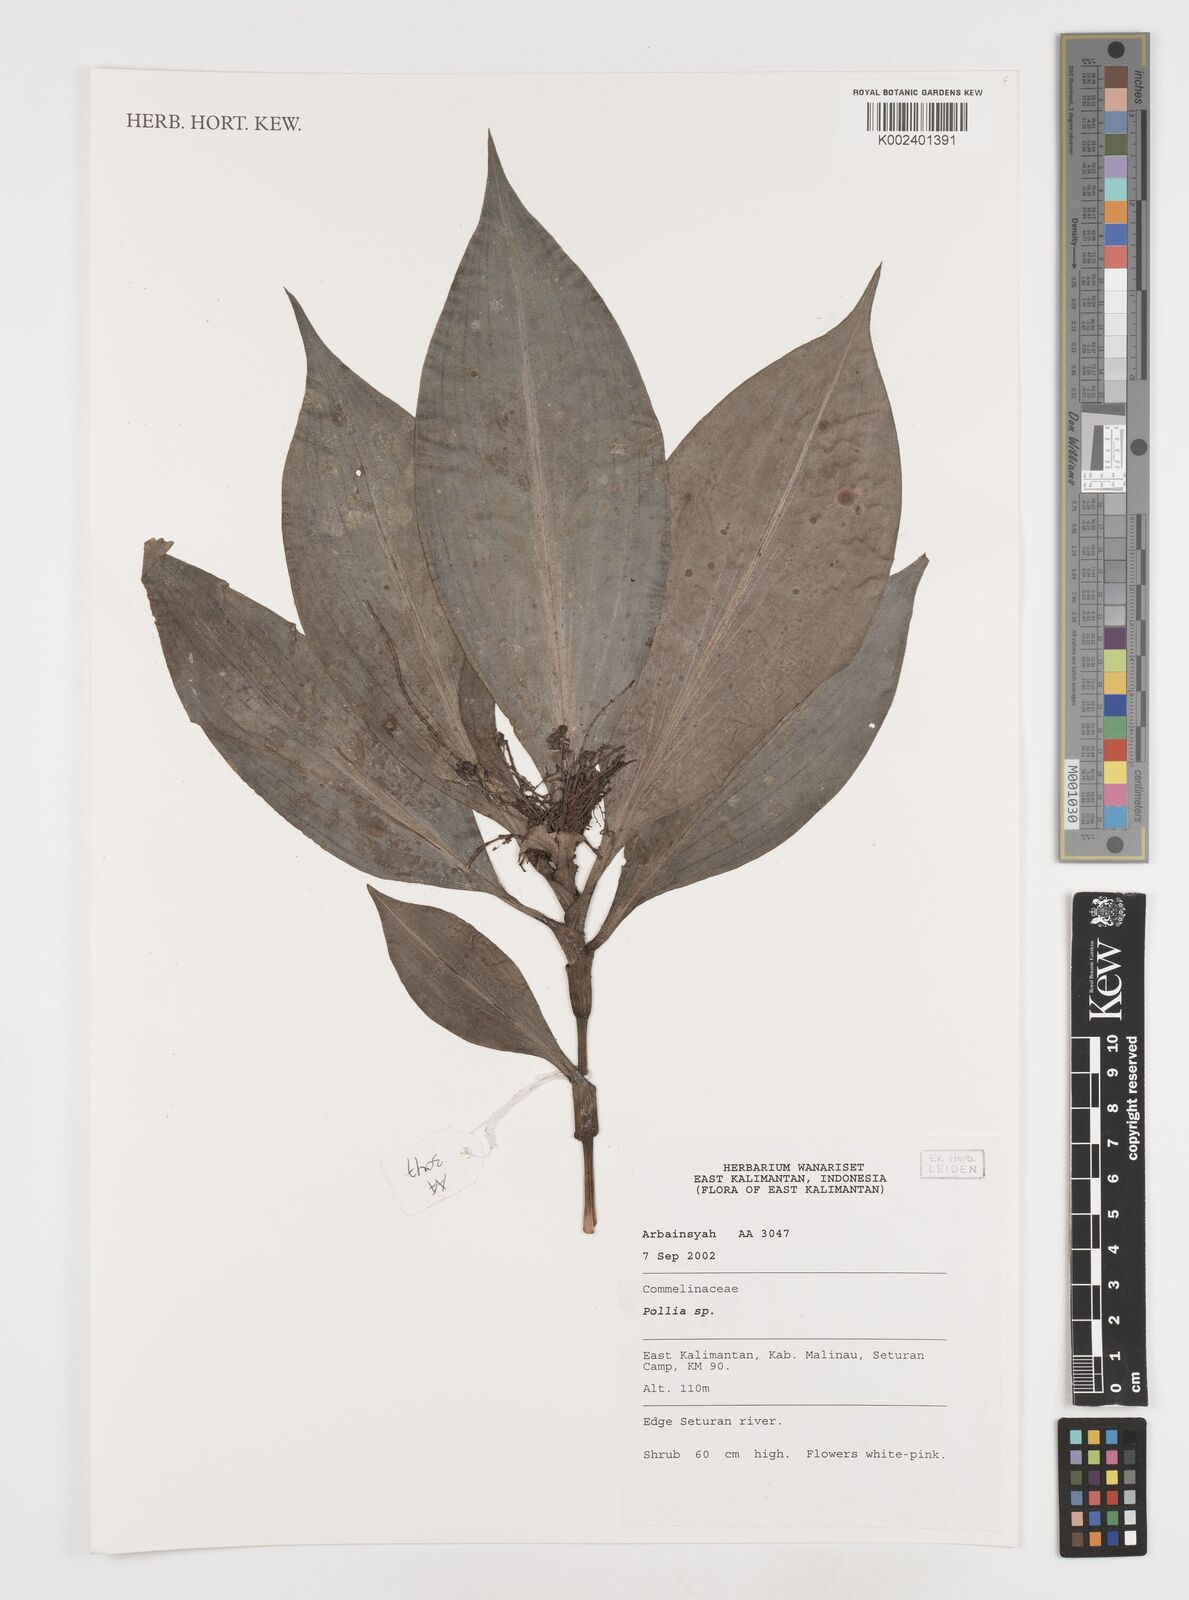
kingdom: Plantae
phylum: Tracheophyta
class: Liliopsida
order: Commelinales
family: Commelinaceae
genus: Pollia
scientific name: Pollia
